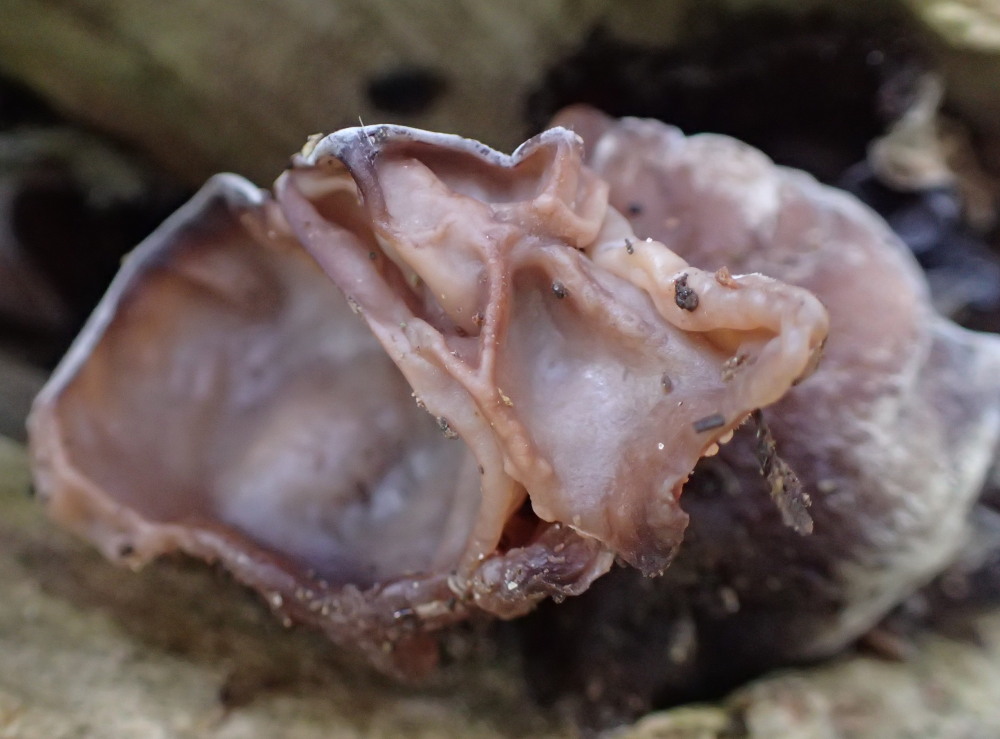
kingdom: Fungi
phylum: Basidiomycota
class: Agaricomycetes
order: Auriculariales
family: Auriculariaceae
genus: Auricularia
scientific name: Auricularia auricula-judae
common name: almindelig judasøre
